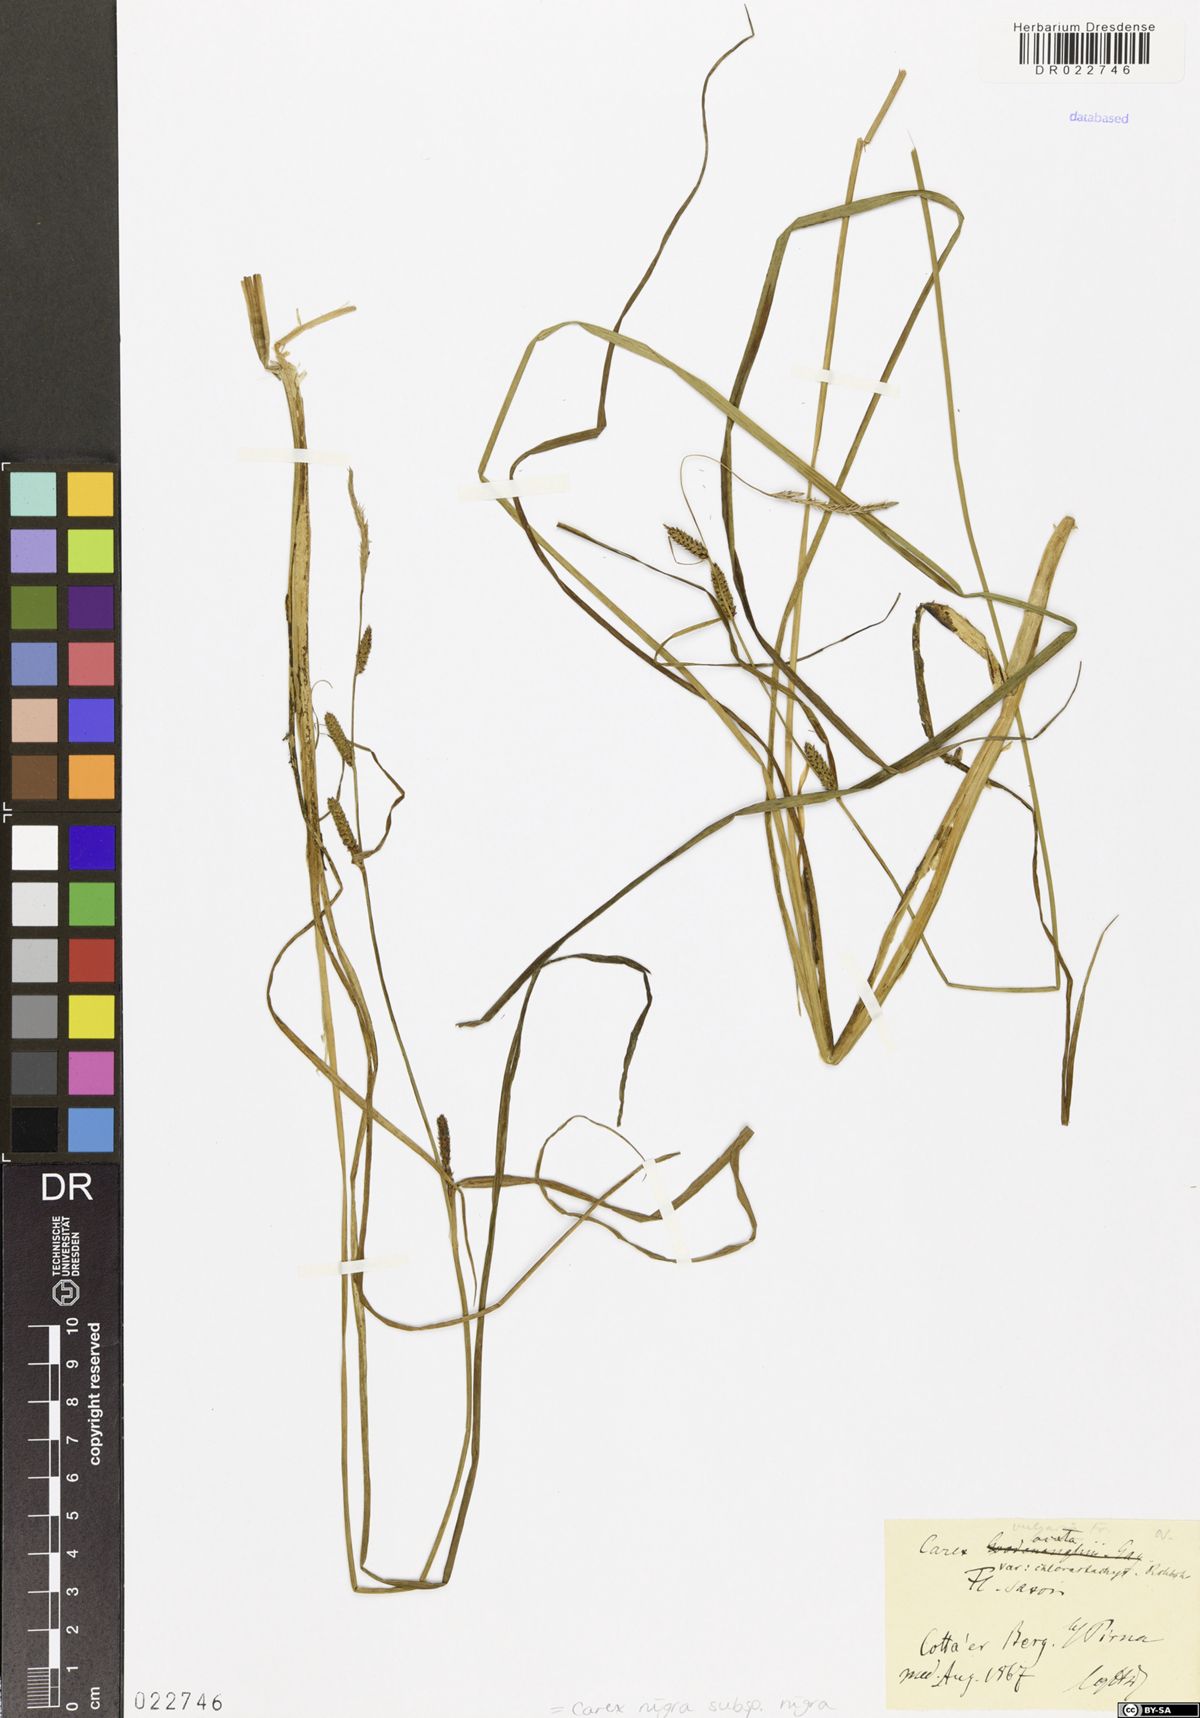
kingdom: Plantae
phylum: Tracheophyta
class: Liliopsida
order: Poales
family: Cyperaceae
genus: Carex
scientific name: Carex nigra
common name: Common sedge
